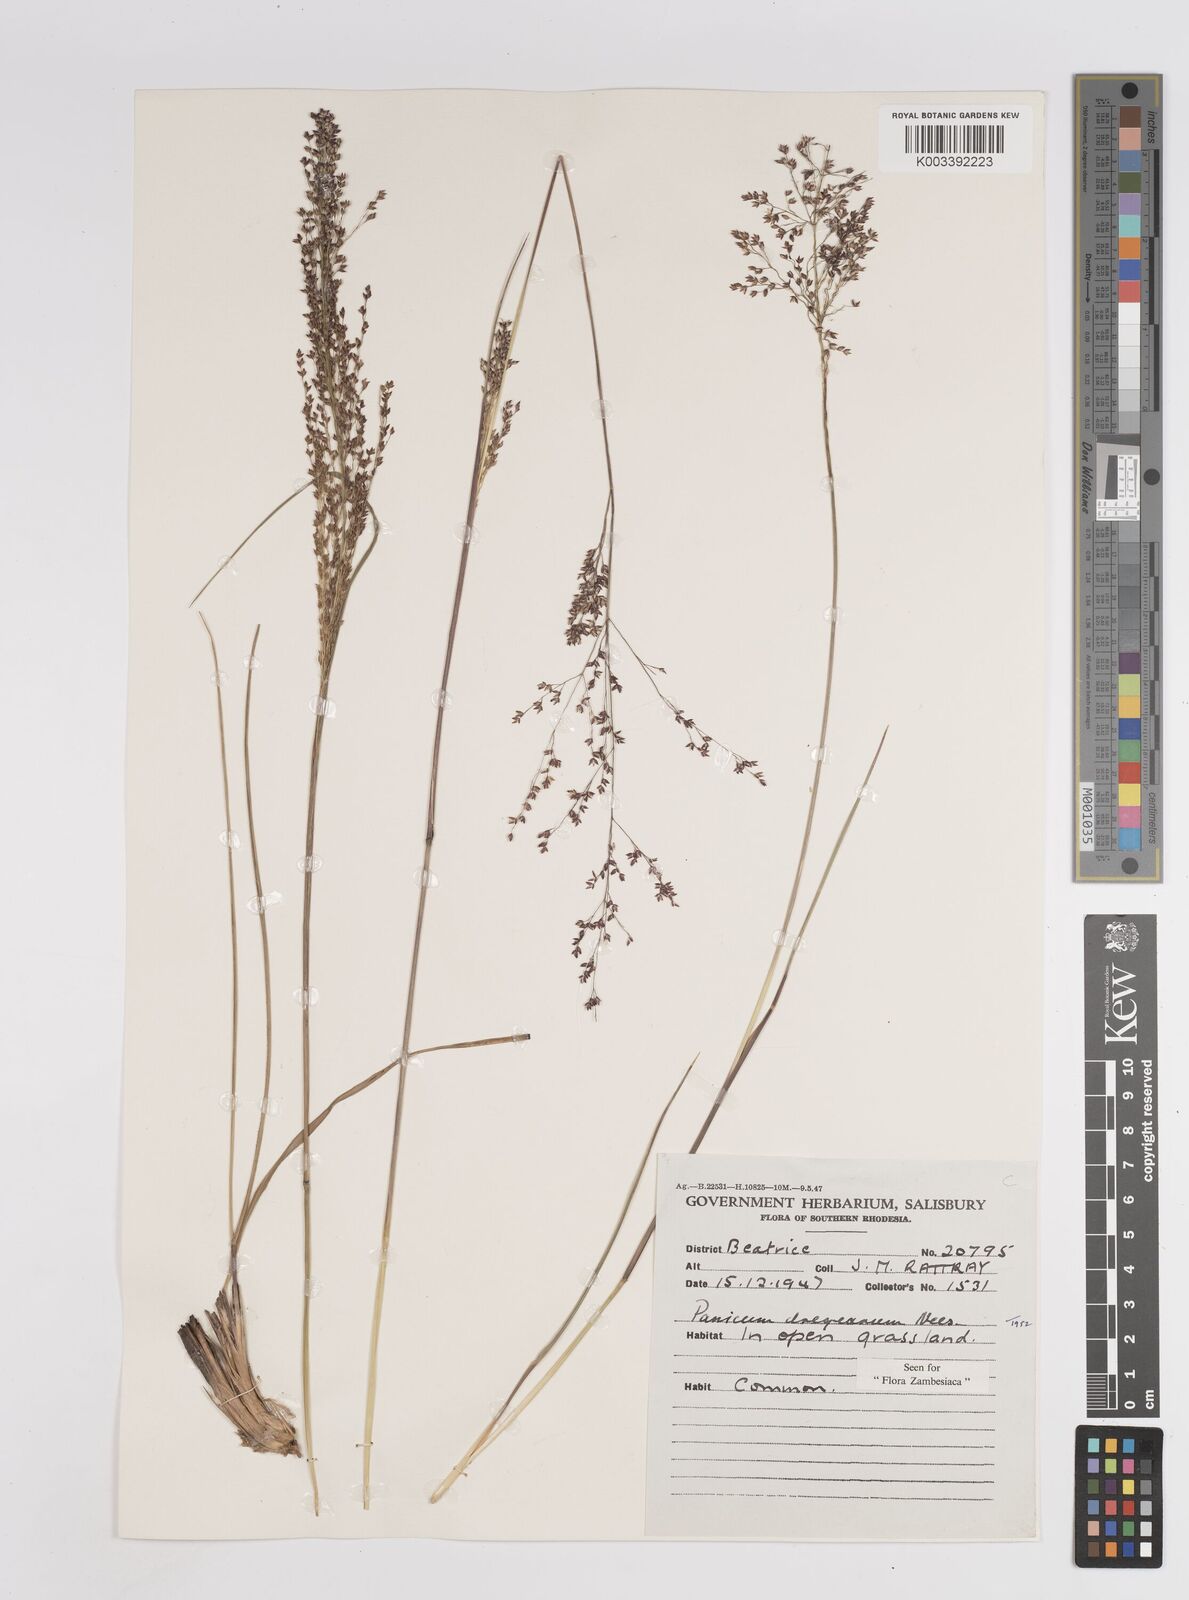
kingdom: Plantae
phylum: Tracheophyta
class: Liliopsida
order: Poales
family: Poaceae
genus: Panicum
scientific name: Panicum dregeanum
